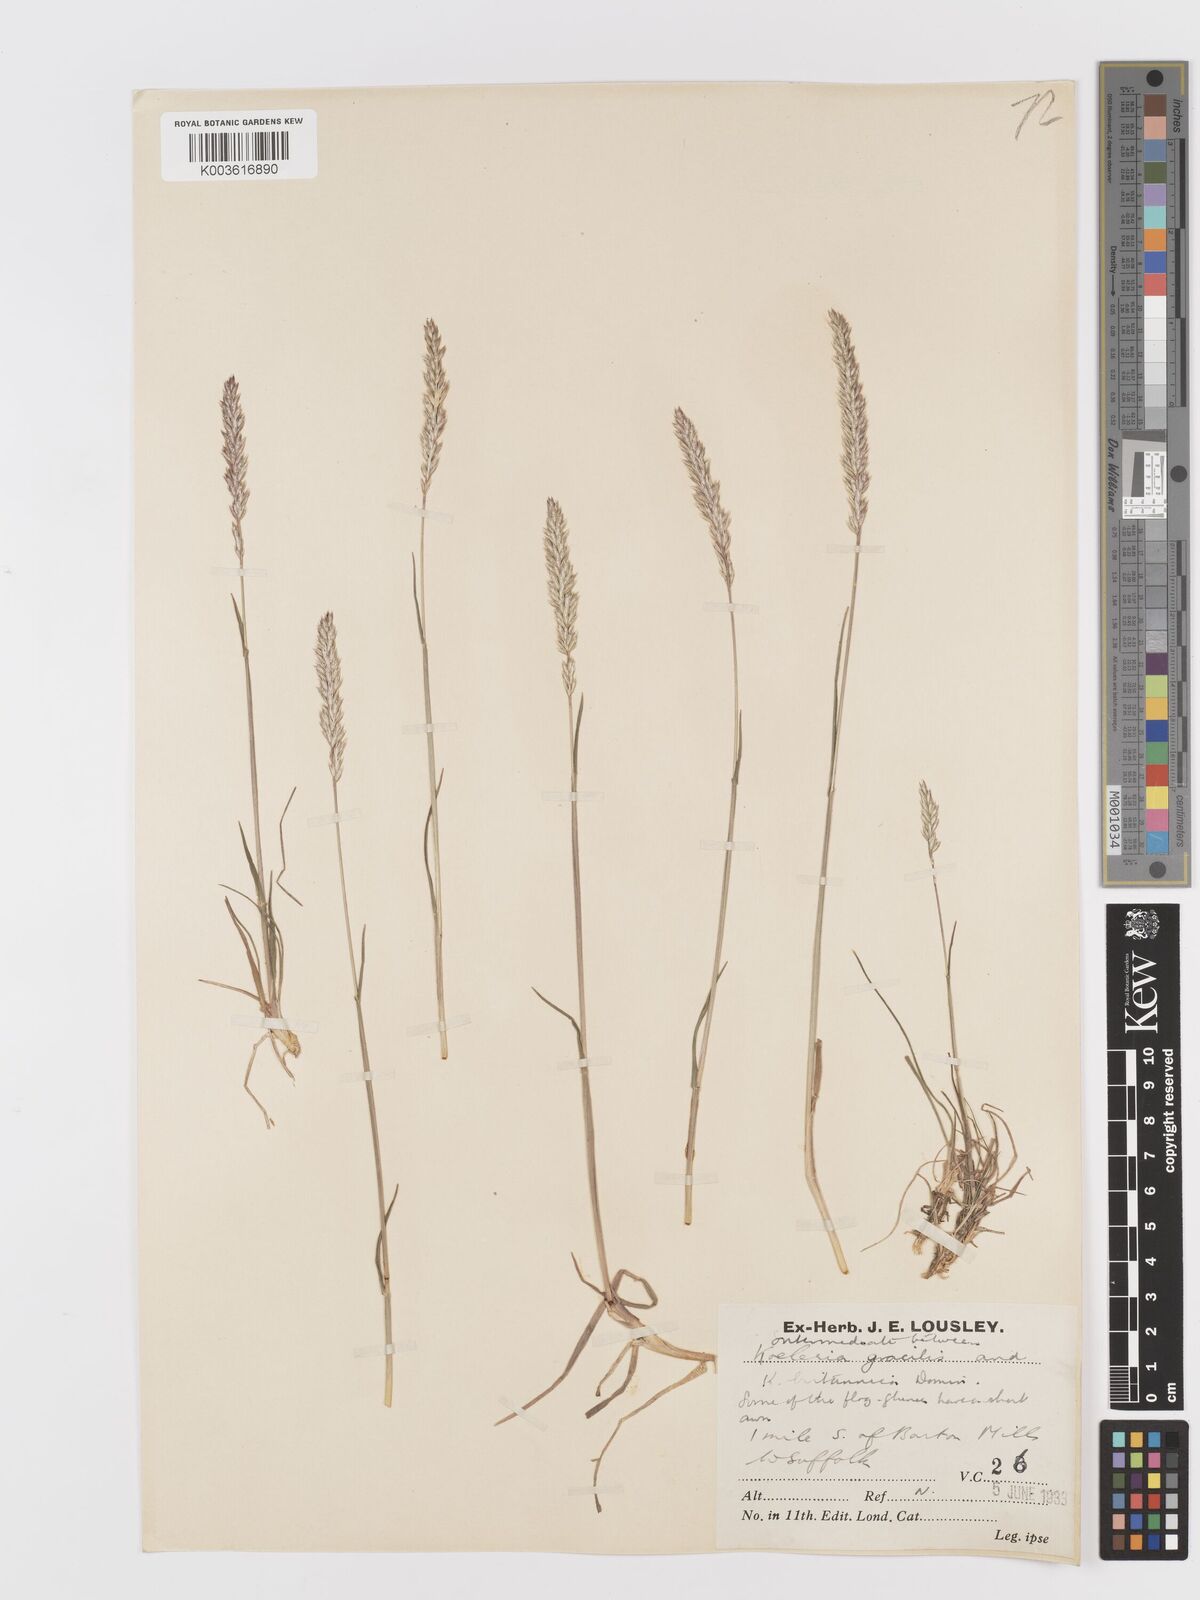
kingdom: Plantae
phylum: Tracheophyta
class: Liliopsida
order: Poales
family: Poaceae
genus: Koeleria
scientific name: Koeleria macrantha
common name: Crested hair-grass
